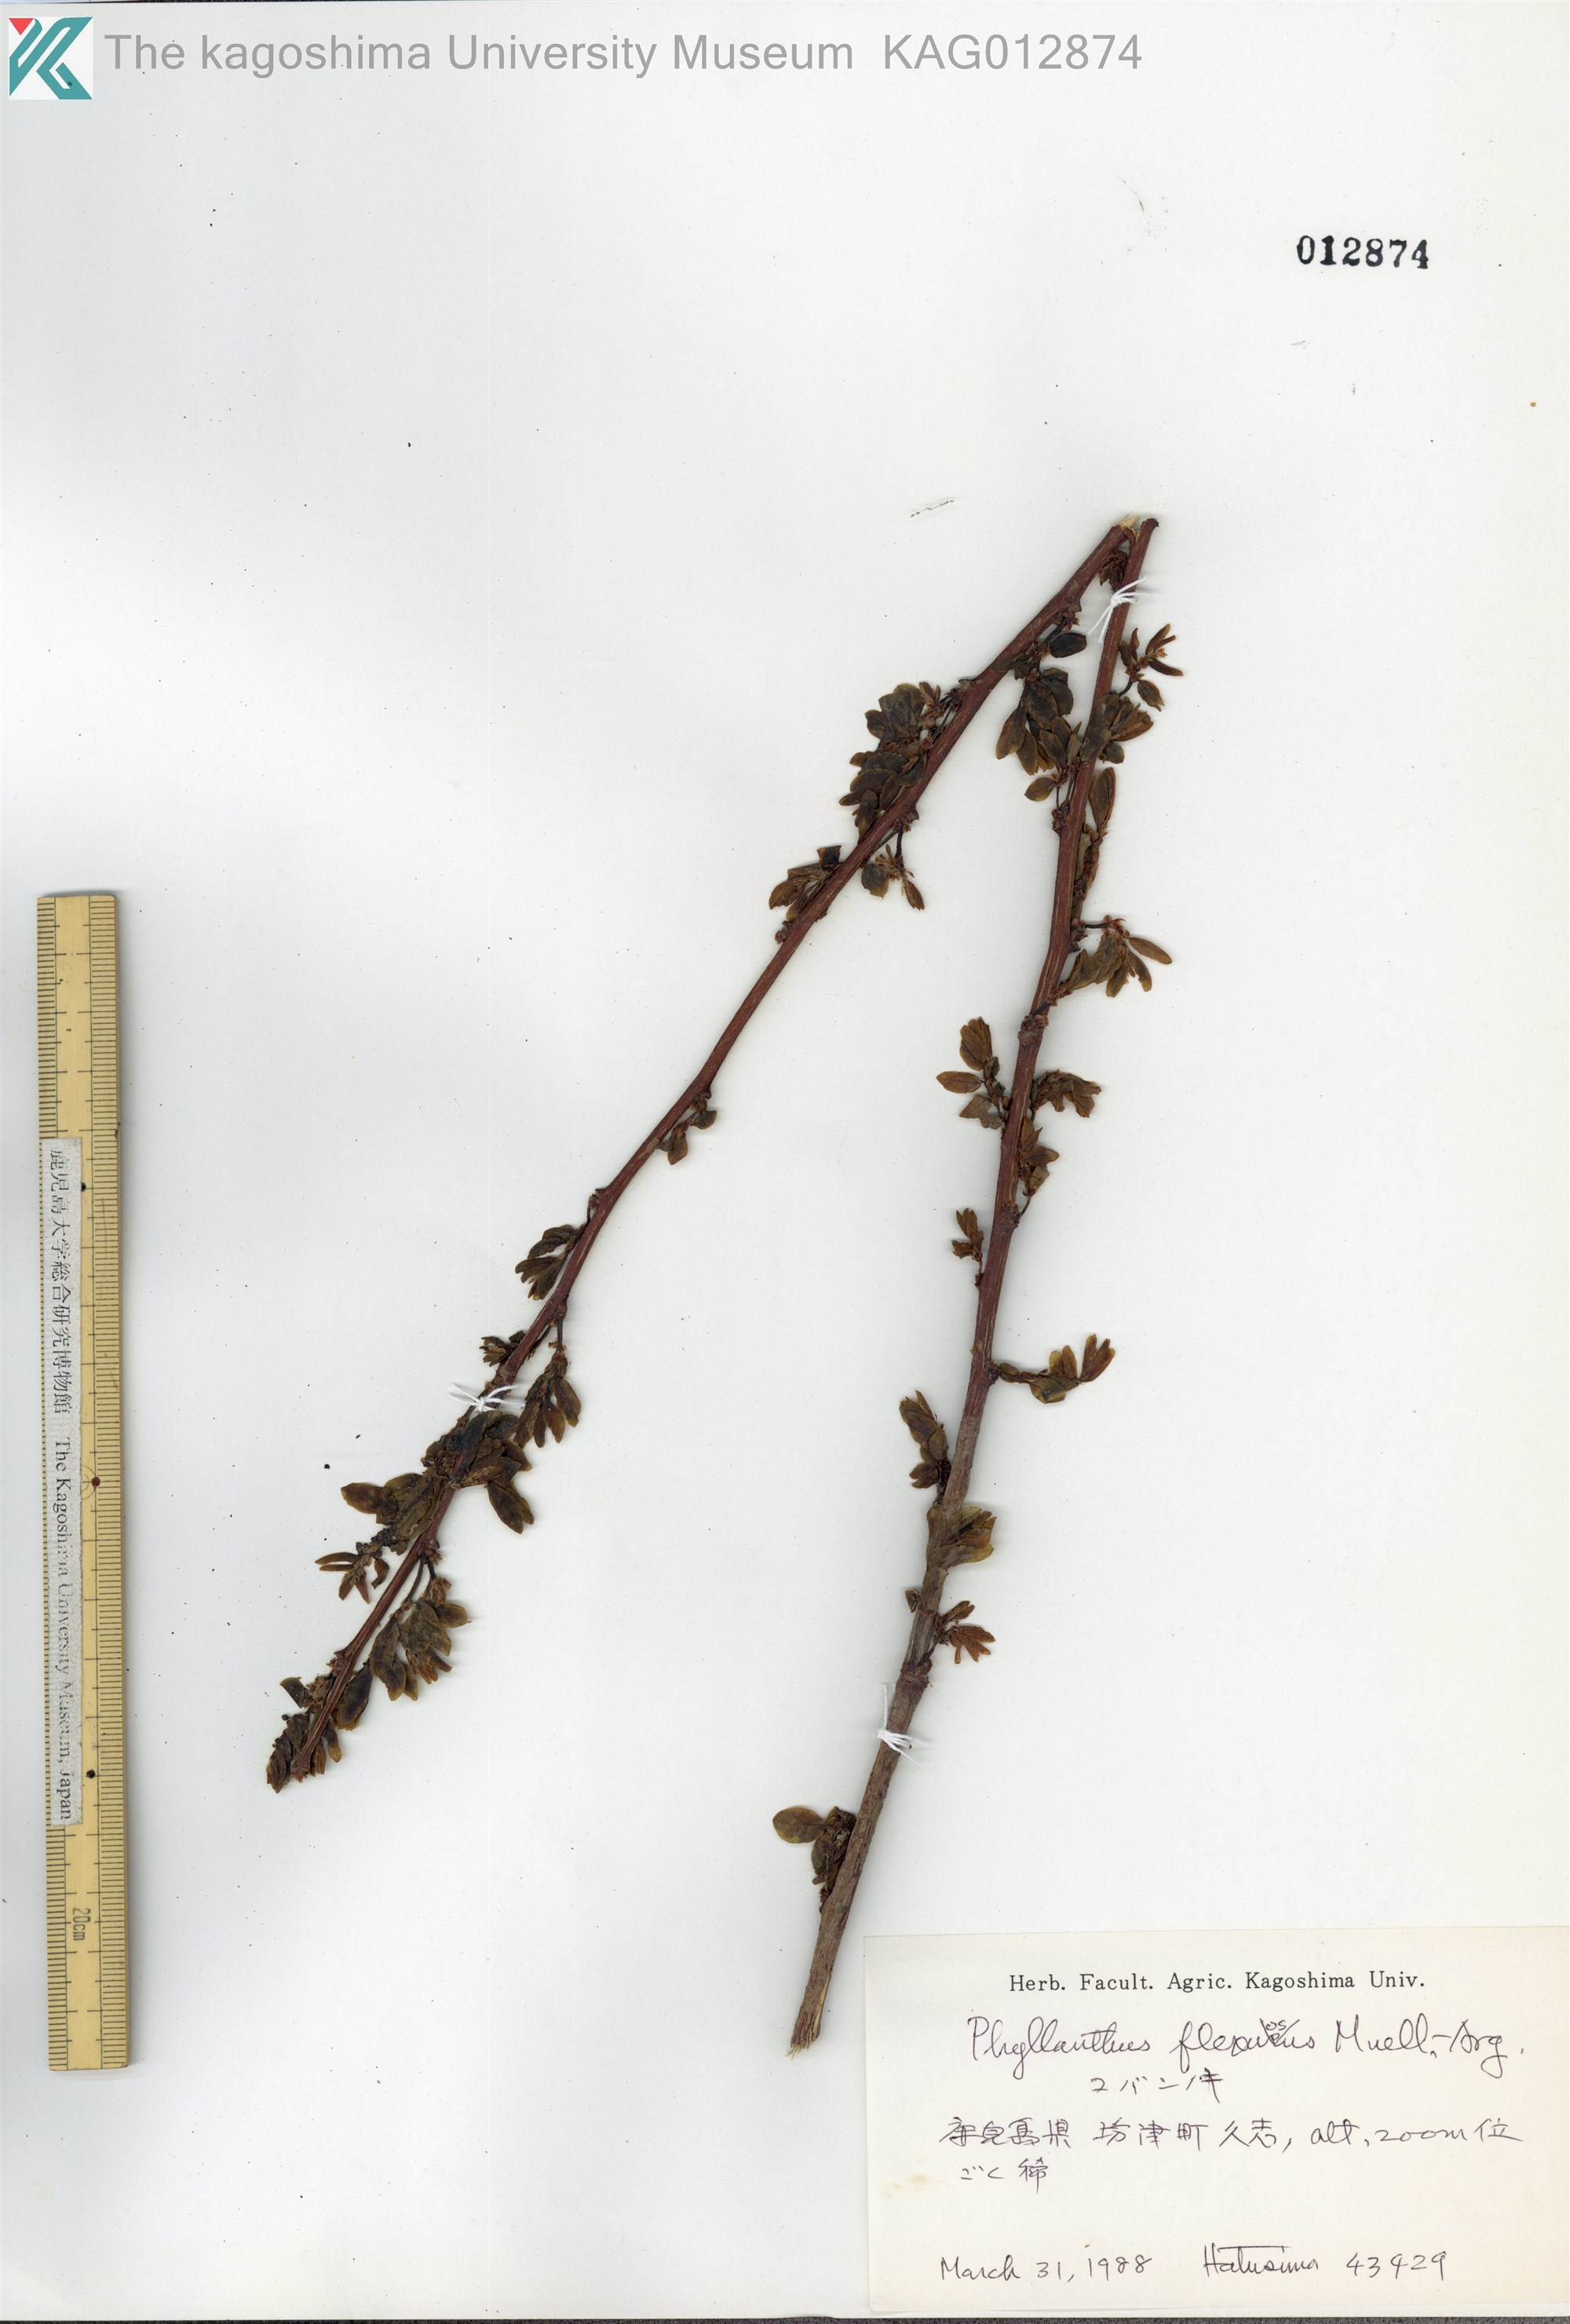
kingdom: Plantae
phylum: Tracheophyta
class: Magnoliopsida
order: Malpighiales
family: Phyllanthaceae
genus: Phyllanthus
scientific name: Phyllanthus flexuosus
